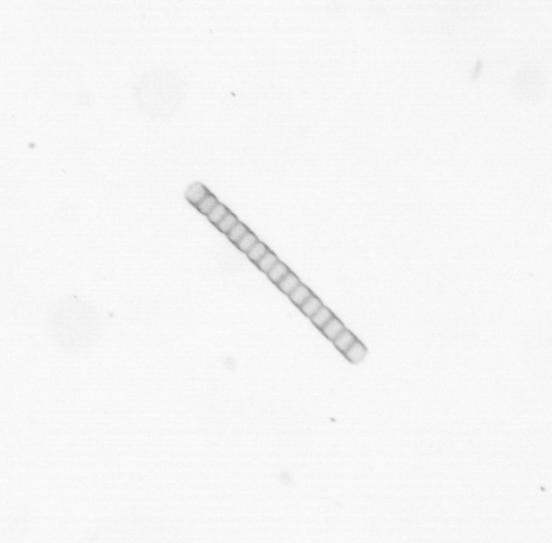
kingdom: Chromista
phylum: Ochrophyta
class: Bacillariophyceae
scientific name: Bacillariophyceae
